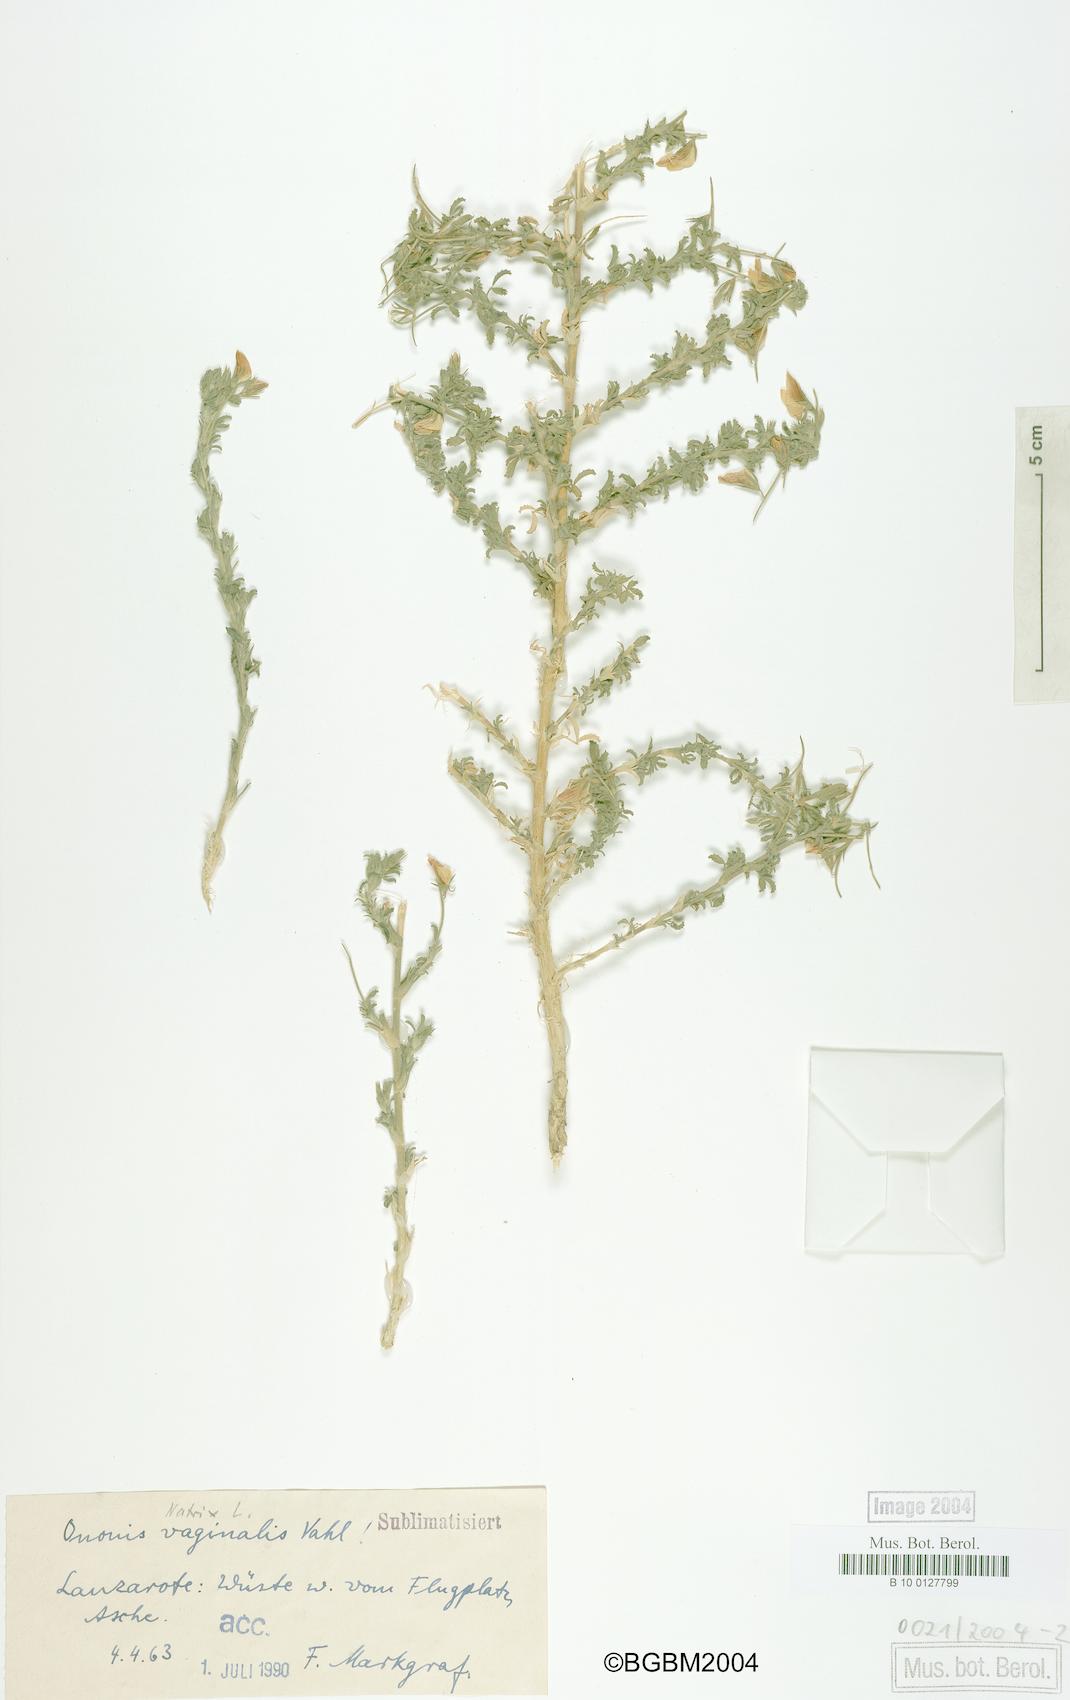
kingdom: Plantae
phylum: Tracheophyta
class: Magnoliopsida
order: Fabales
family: Fabaceae
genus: Ononis
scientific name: Ononis vaginalis
